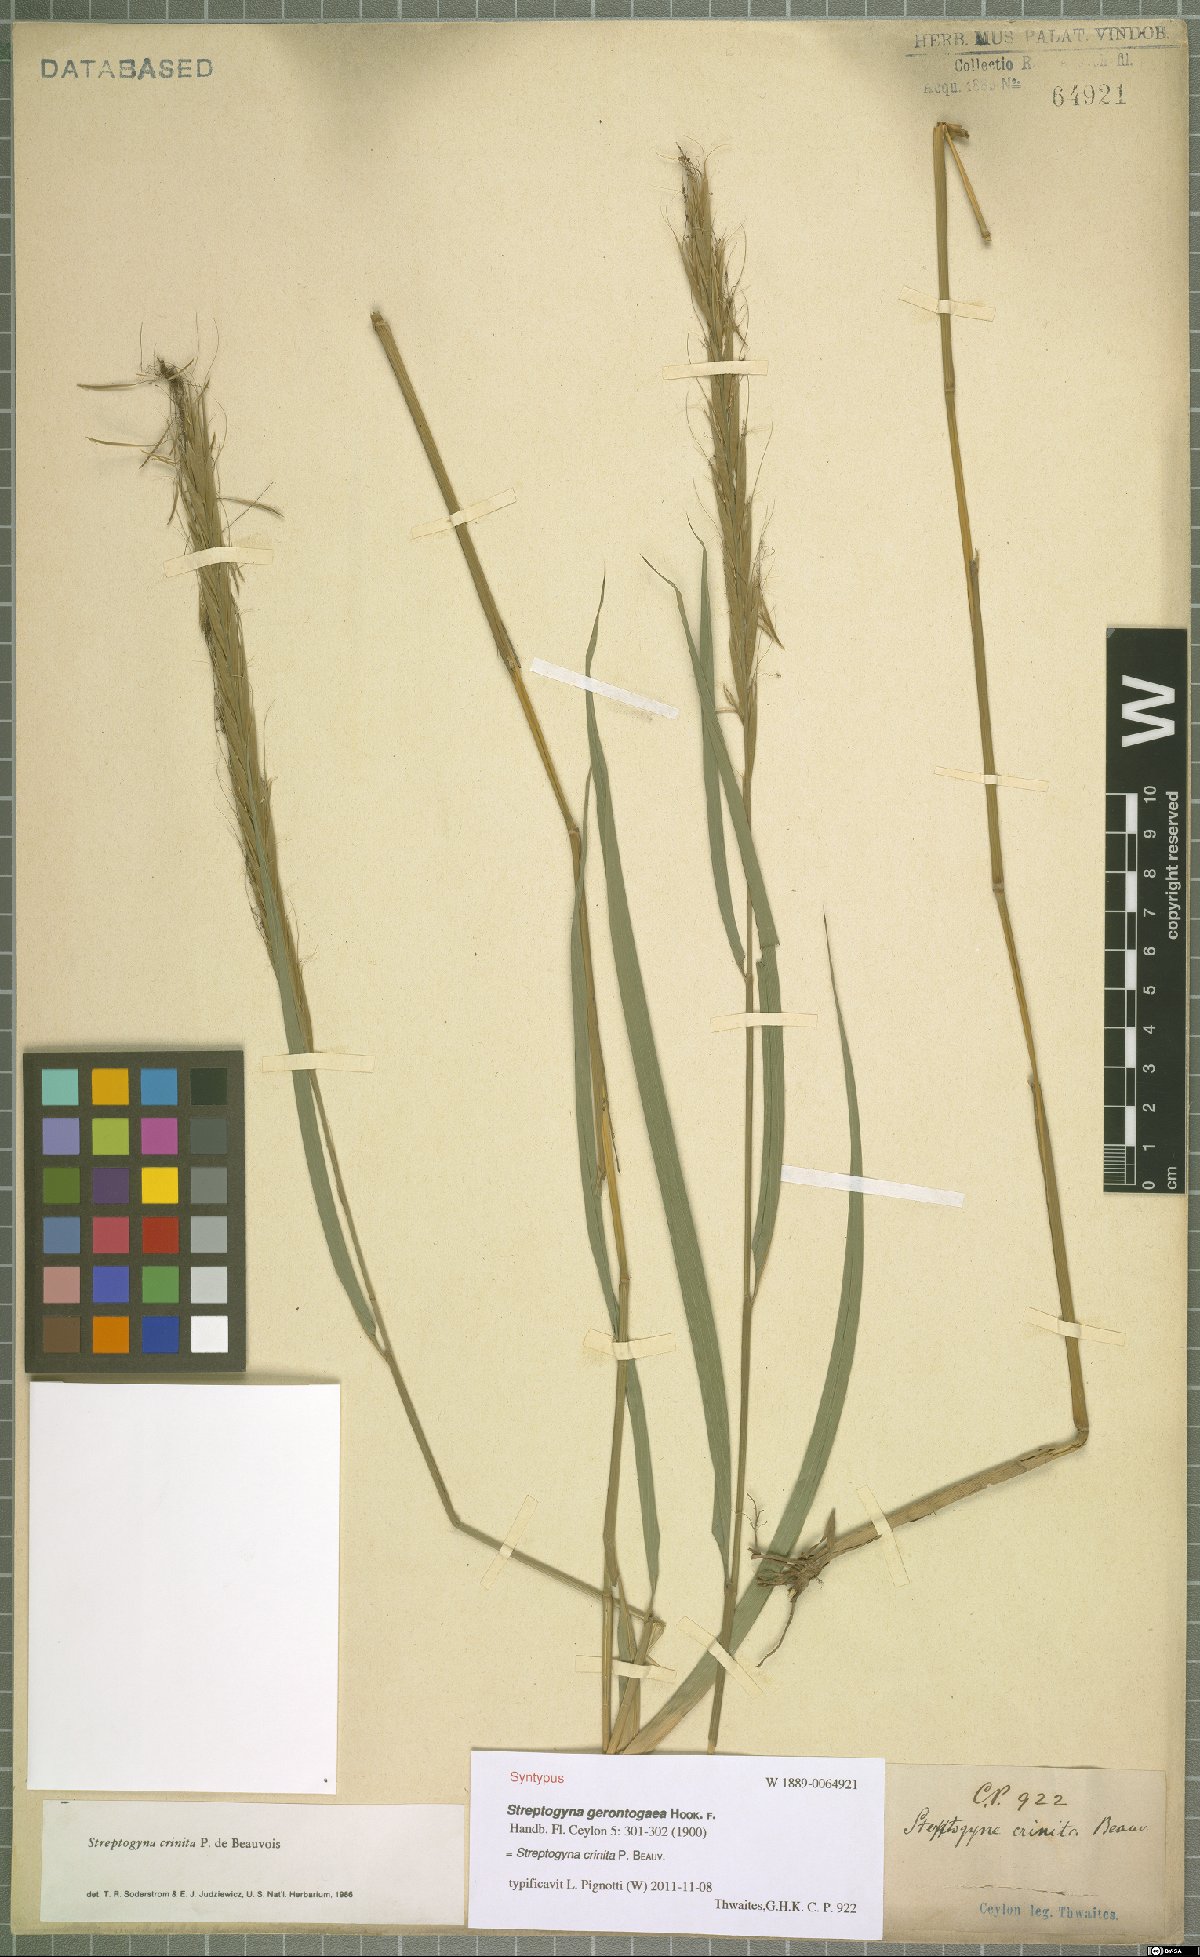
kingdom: Plantae
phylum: Tracheophyta
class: Liliopsida
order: Poales
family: Poaceae
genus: Streptogyna
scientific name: Streptogyna crinita
